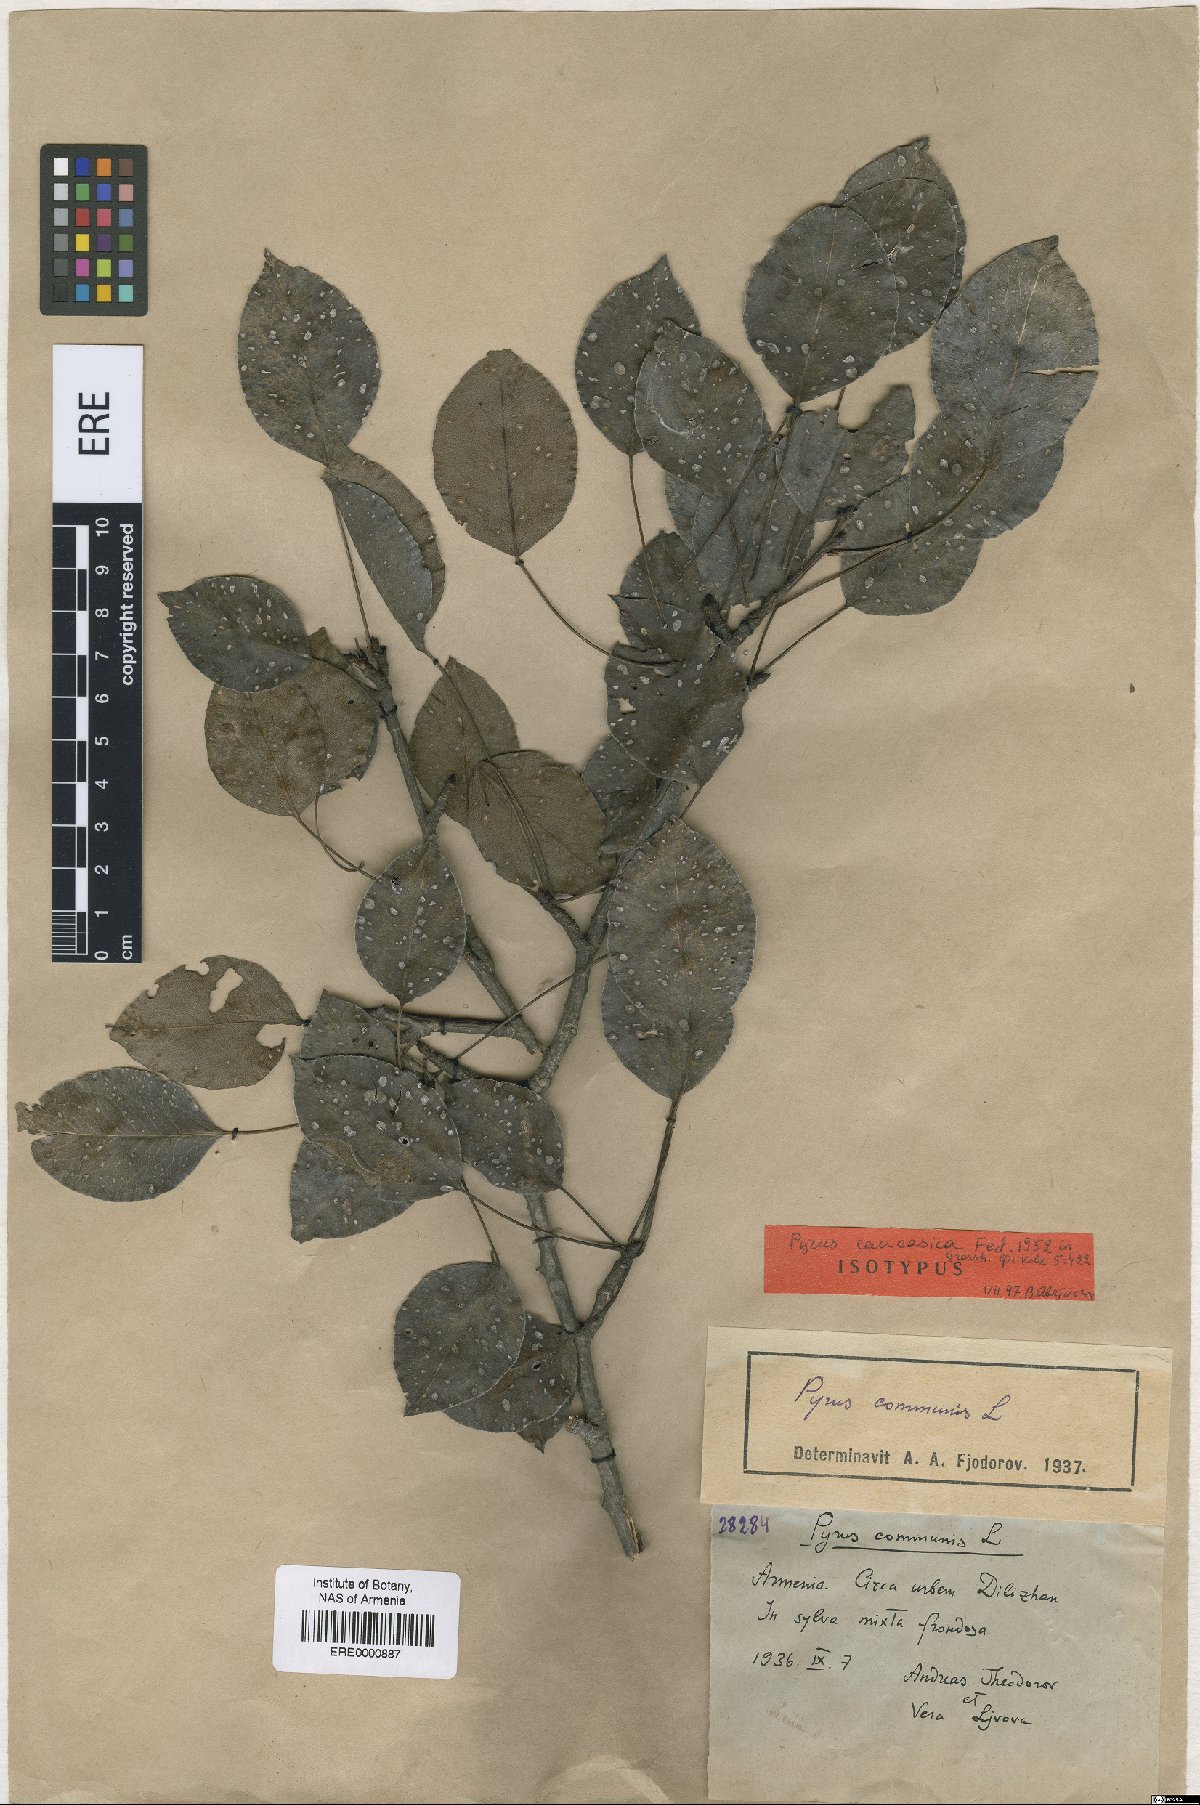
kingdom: Plantae
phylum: Tracheophyta
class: Magnoliopsida
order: Rosales
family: Rosaceae
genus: Pyrus
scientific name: Pyrus communis
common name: Pear
